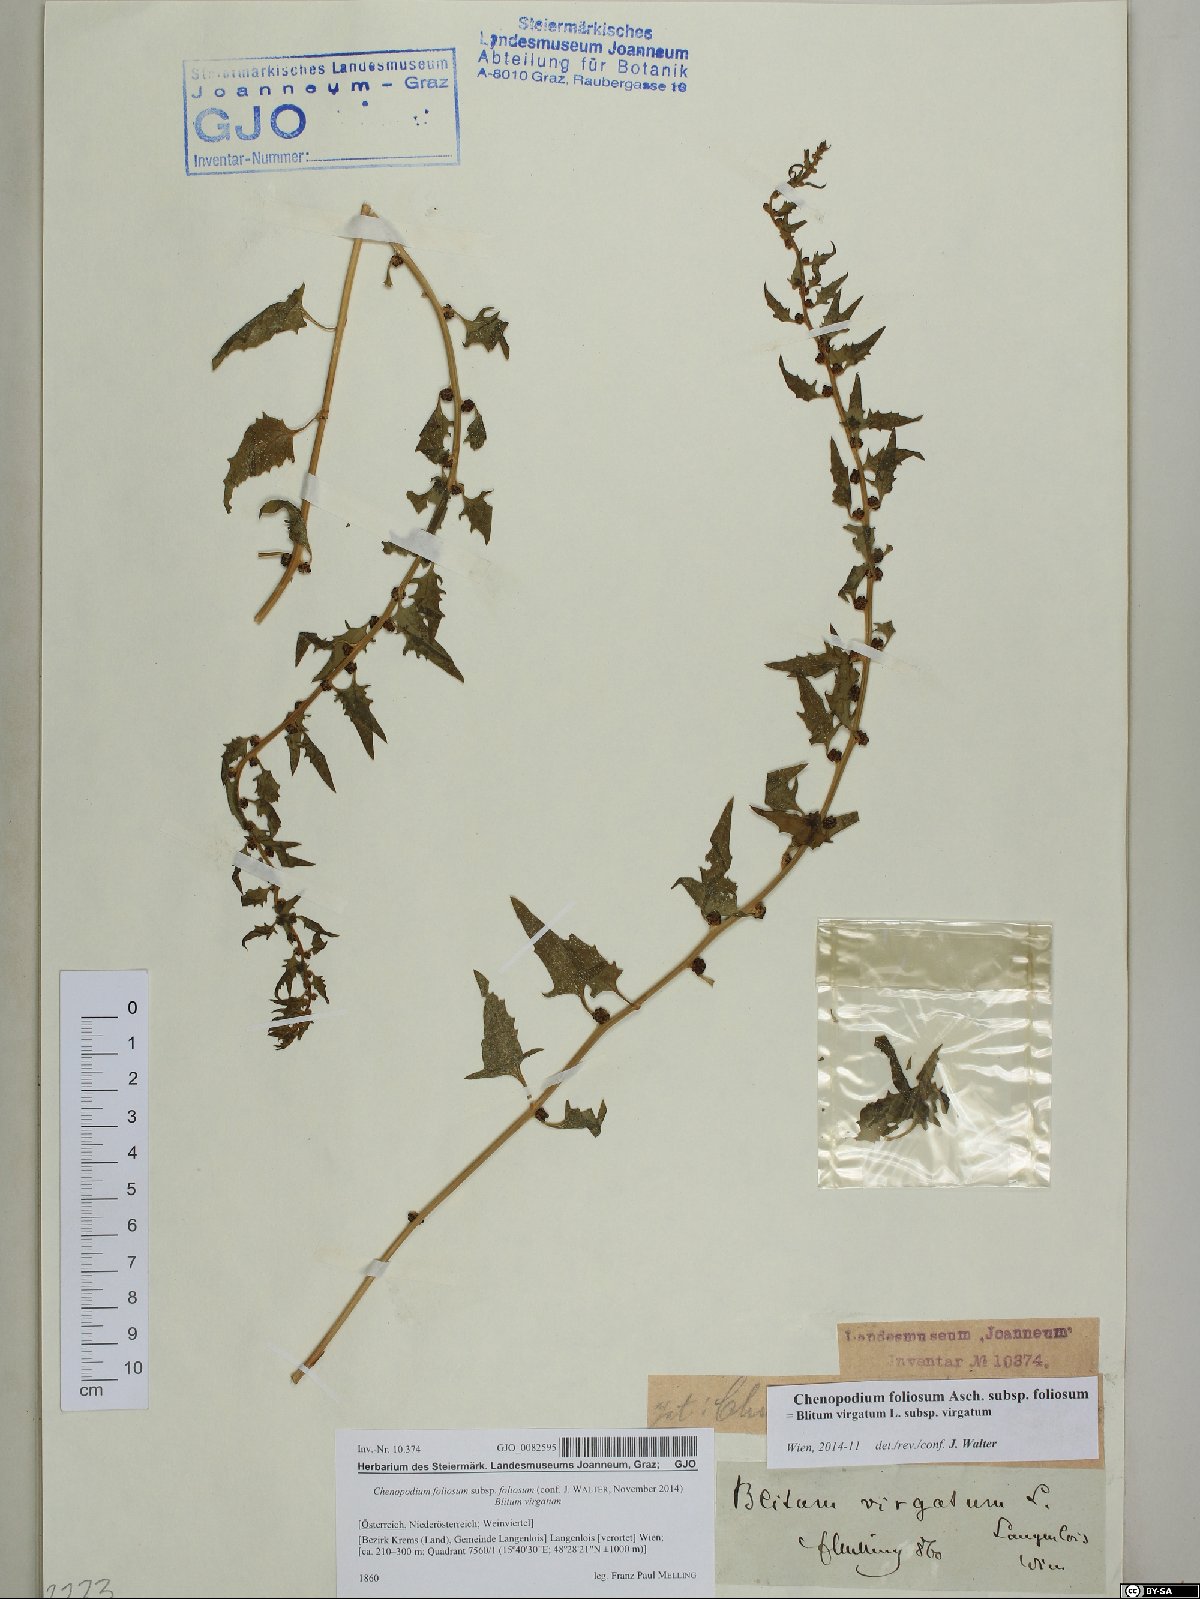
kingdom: Plantae
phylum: Tracheophyta
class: Magnoliopsida
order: Caryophyllales
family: Amaranthaceae
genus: Blitum
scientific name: Blitum virgatum
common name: Strawberry goosefoot
